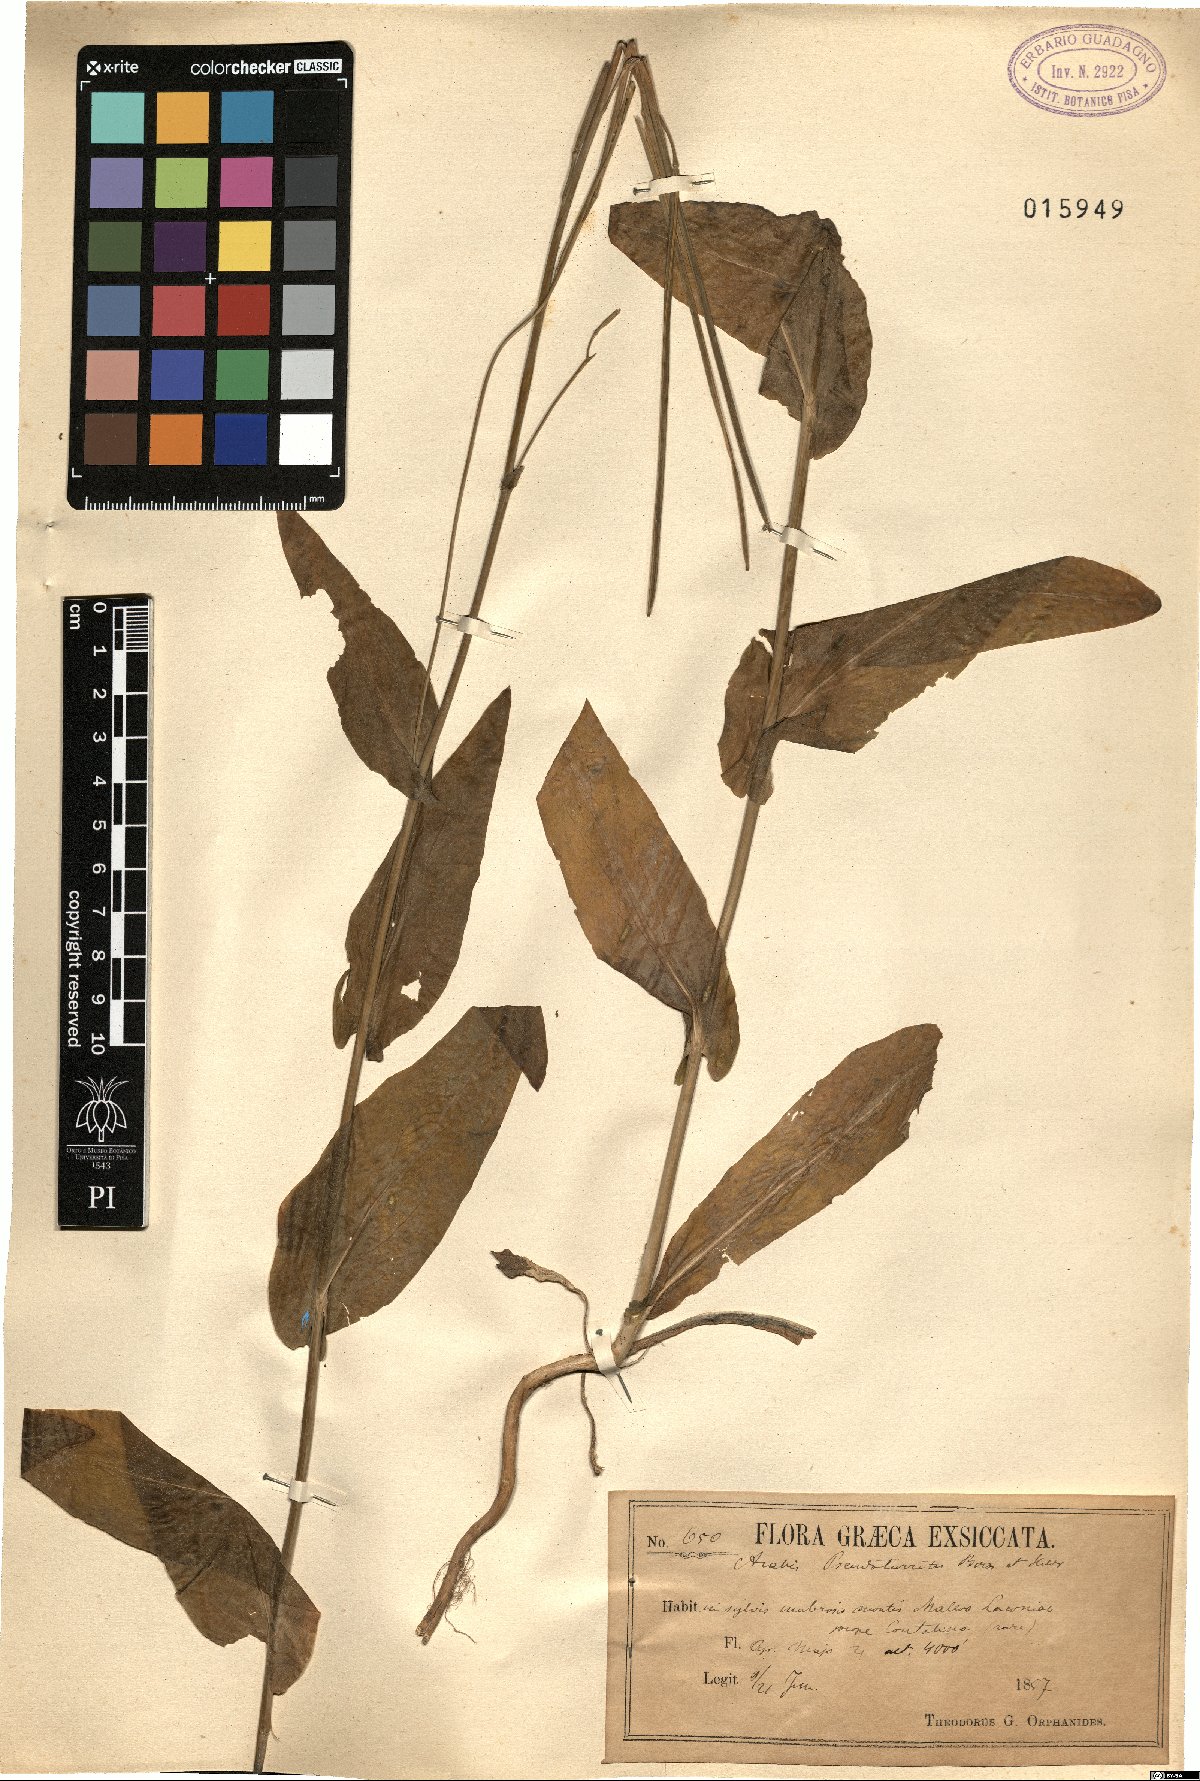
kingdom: Plantae
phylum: Tracheophyta
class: Magnoliopsida
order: Brassicales
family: Brassicaceae
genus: Turritis
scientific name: Turritis glabra
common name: Tower rockcress
